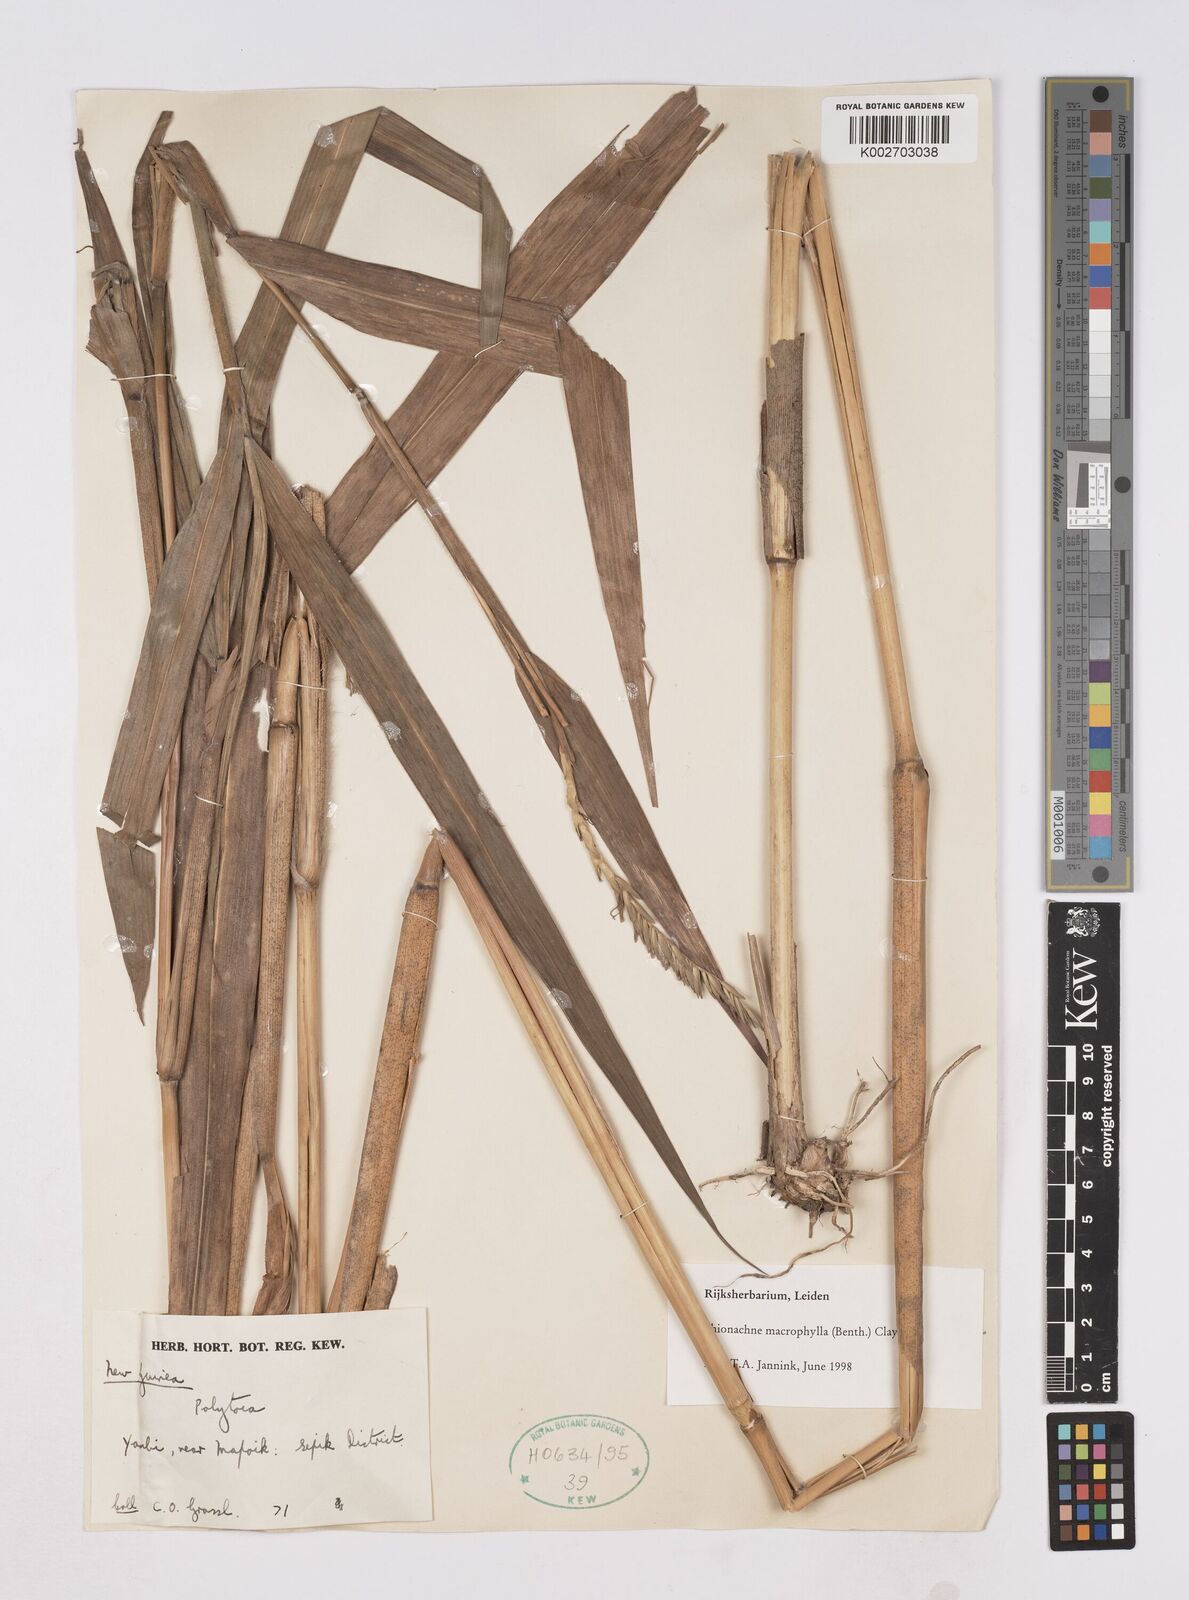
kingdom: Plantae
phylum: Tracheophyta
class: Liliopsida
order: Poales
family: Poaceae
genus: Polytoca
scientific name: Polytoca
